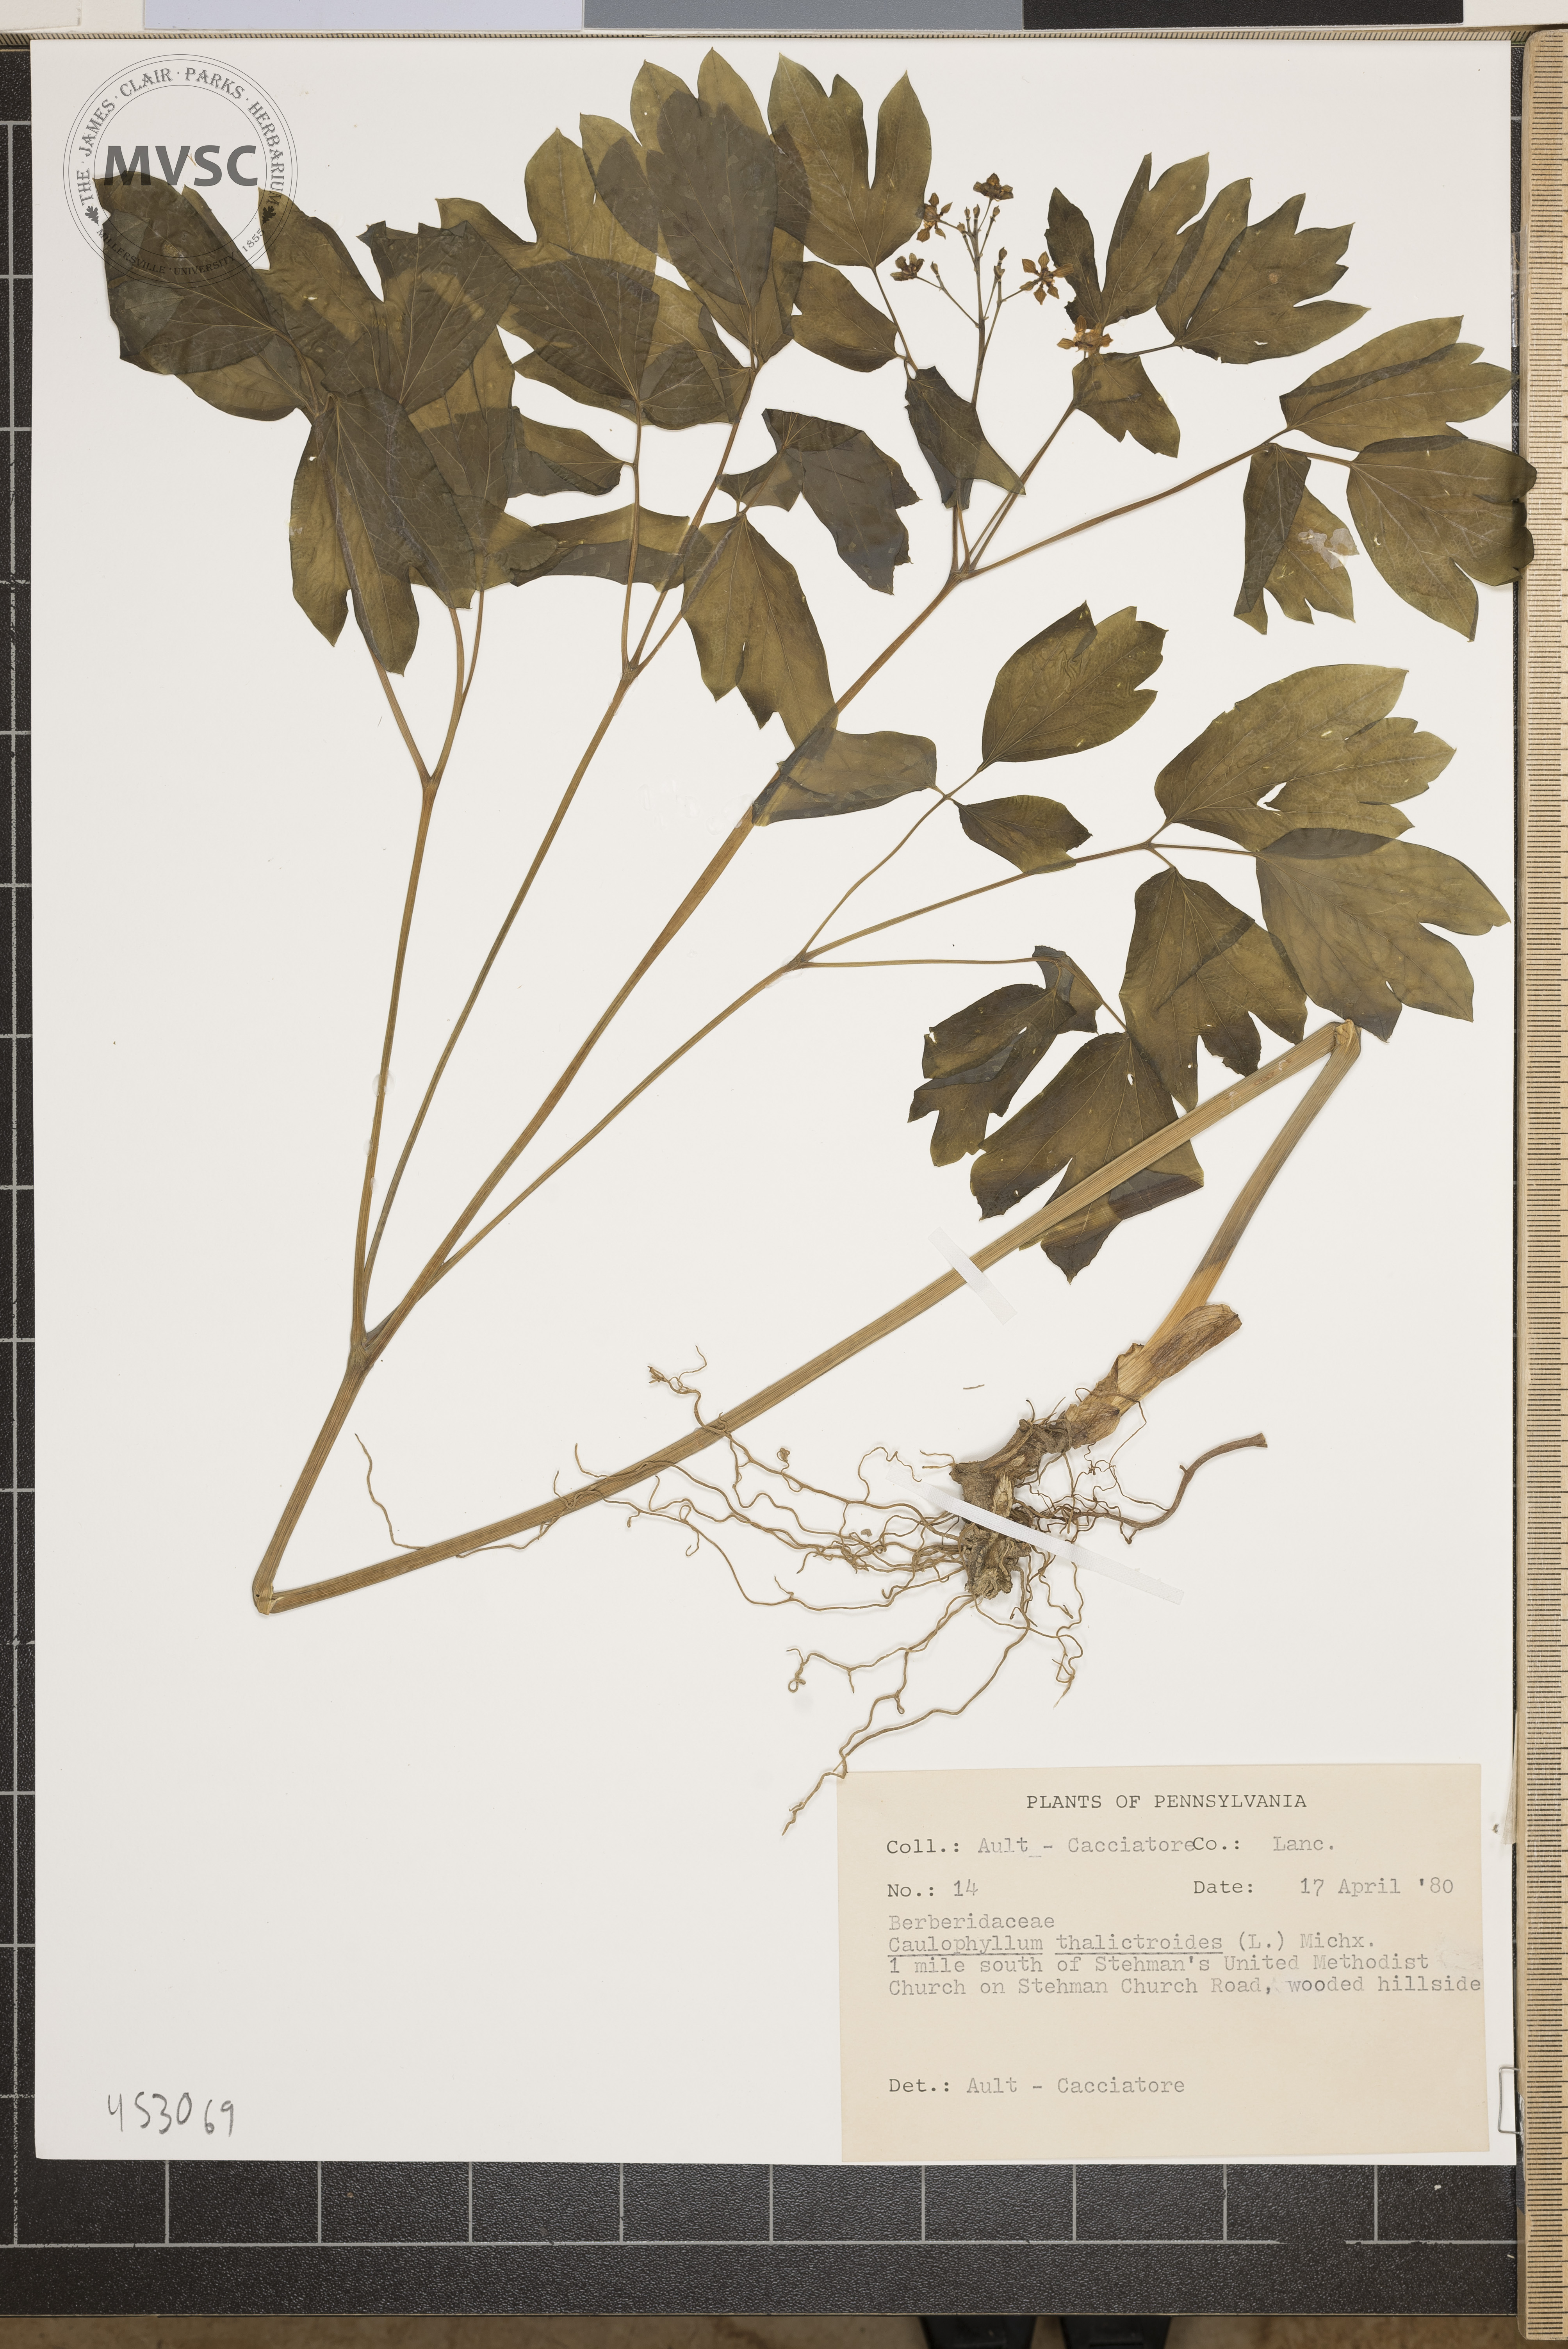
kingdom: Plantae
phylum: Tracheophyta
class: Magnoliopsida
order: Ranunculales
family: Berberidaceae
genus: Caulophyllum
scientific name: Caulophyllum thalictroides
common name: Blue cohosh
